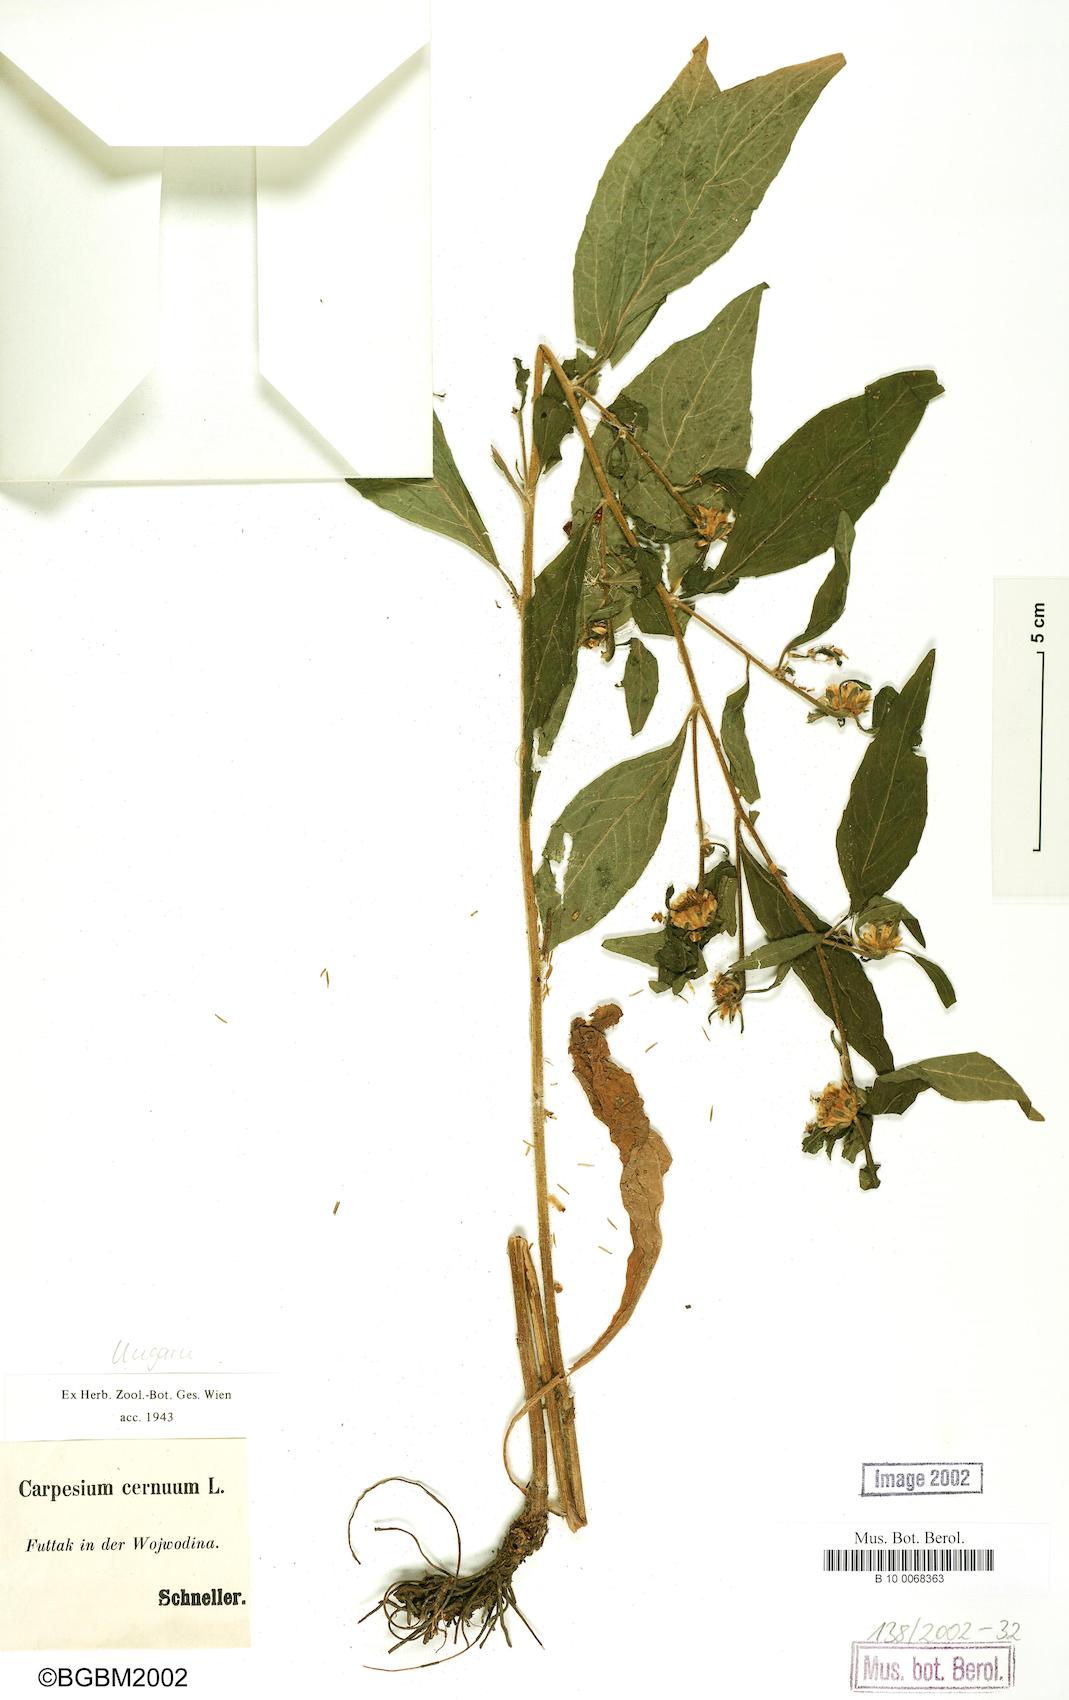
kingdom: Plantae
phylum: Tracheophyta
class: Magnoliopsida
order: Asterales
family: Asteraceae
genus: Carpesium
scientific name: Carpesium cernuum
